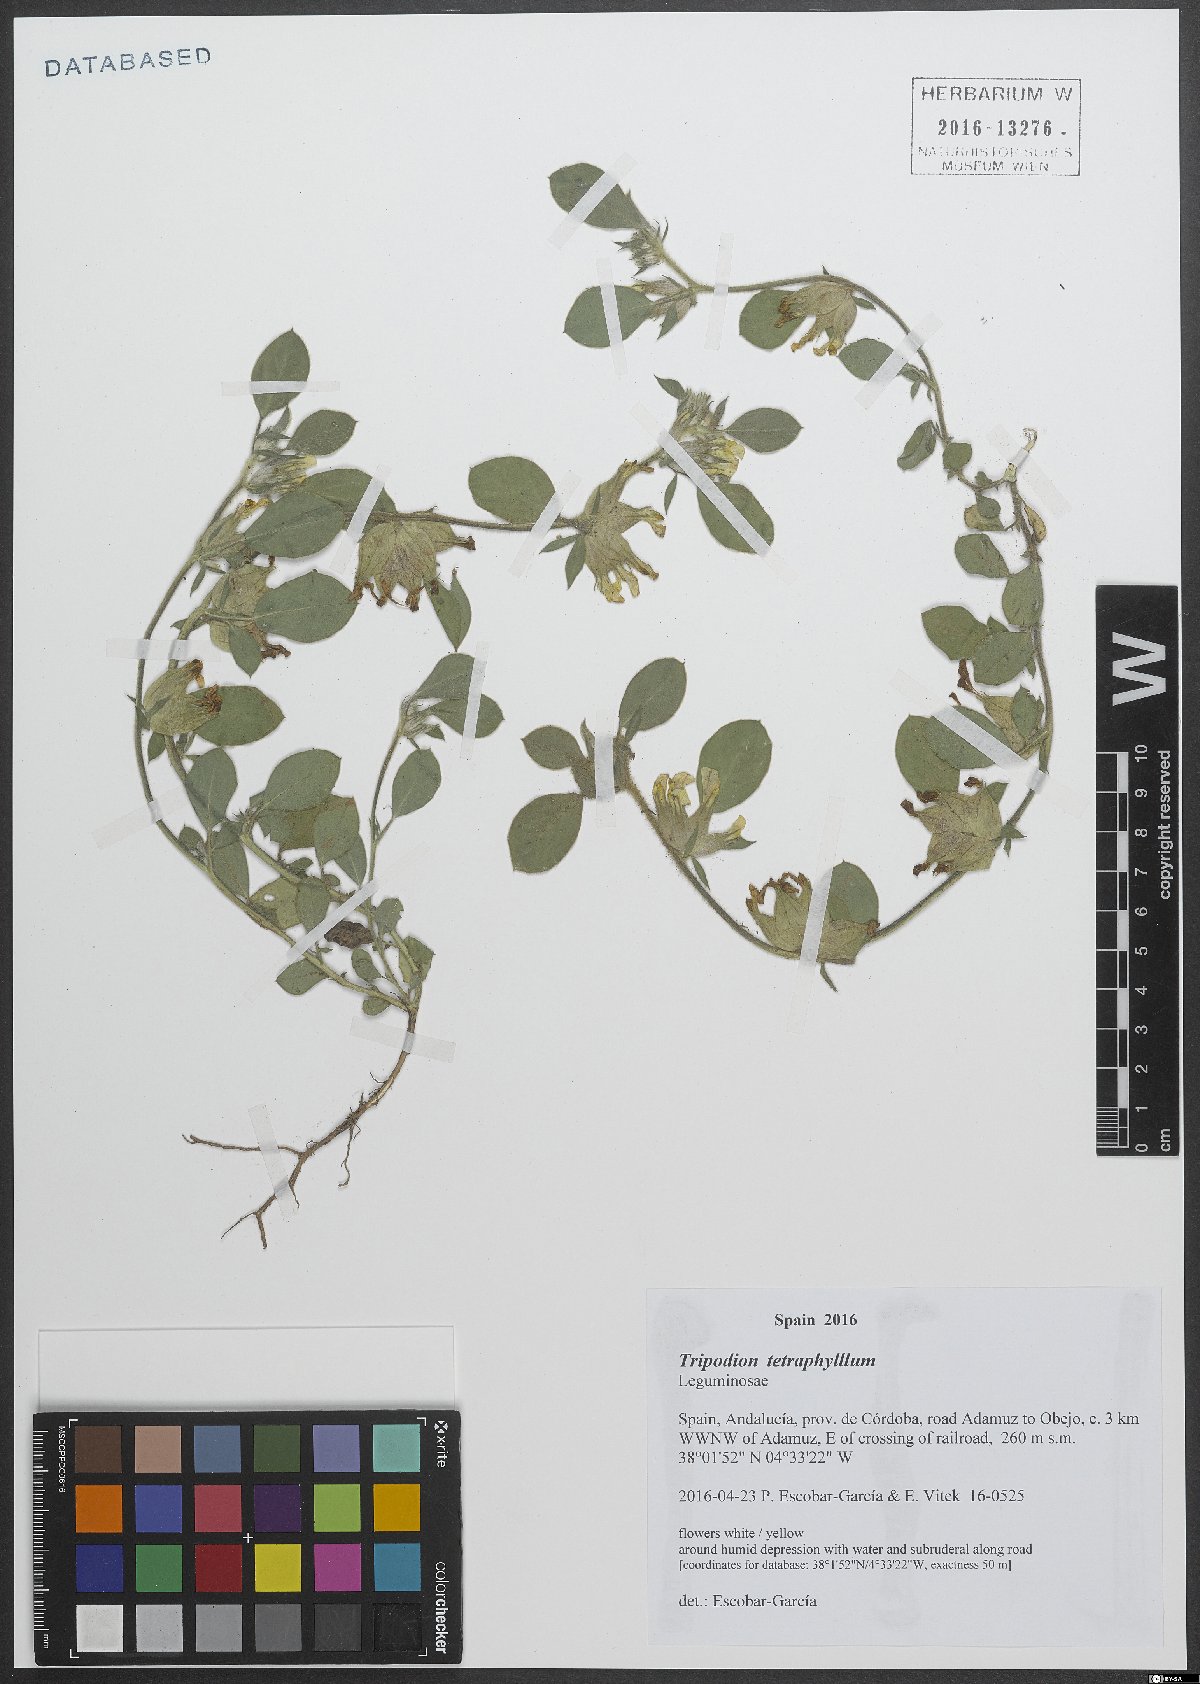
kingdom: Plantae
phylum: Tracheophyta
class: Magnoliopsida
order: Fabales
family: Fabaceae
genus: Tripodion
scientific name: Tripodion tetraphyllum
